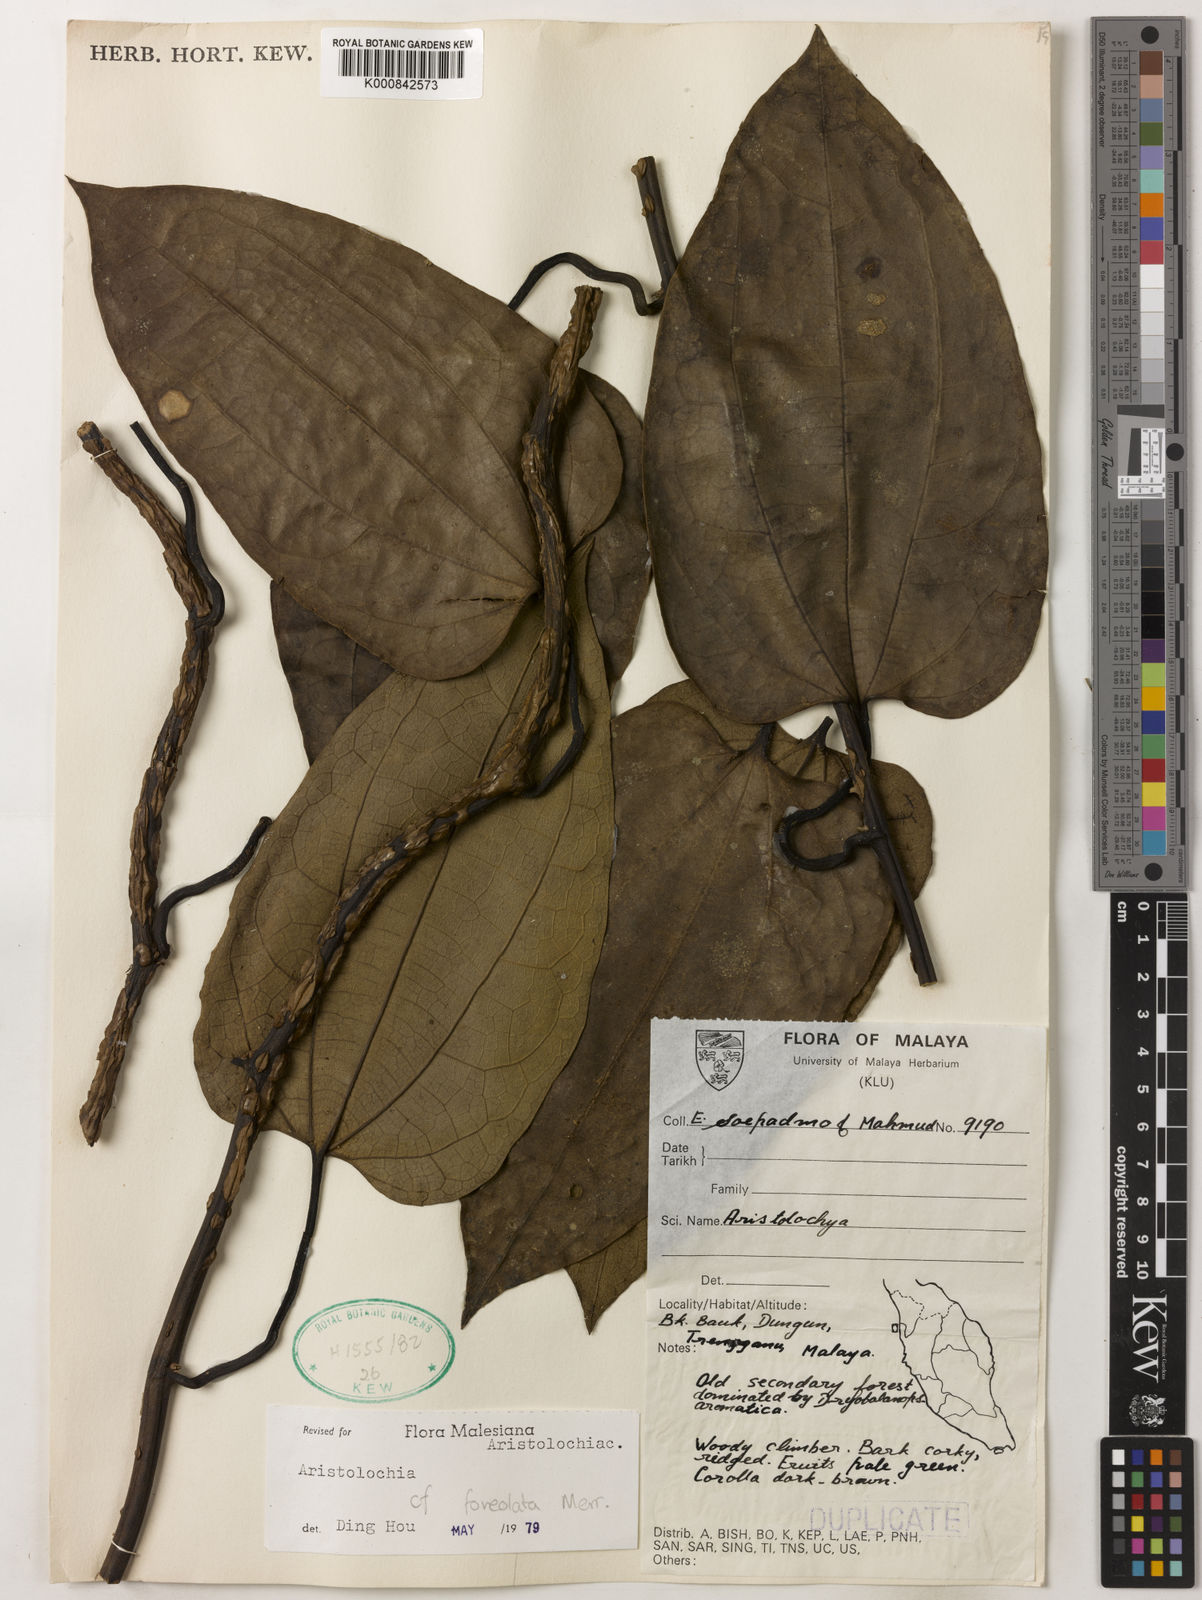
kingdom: Plantae
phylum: Tracheophyta
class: Magnoliopsida
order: Piperales
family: Aristolochiaceae
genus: Aristolochia
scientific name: Aristolochia foveolata
